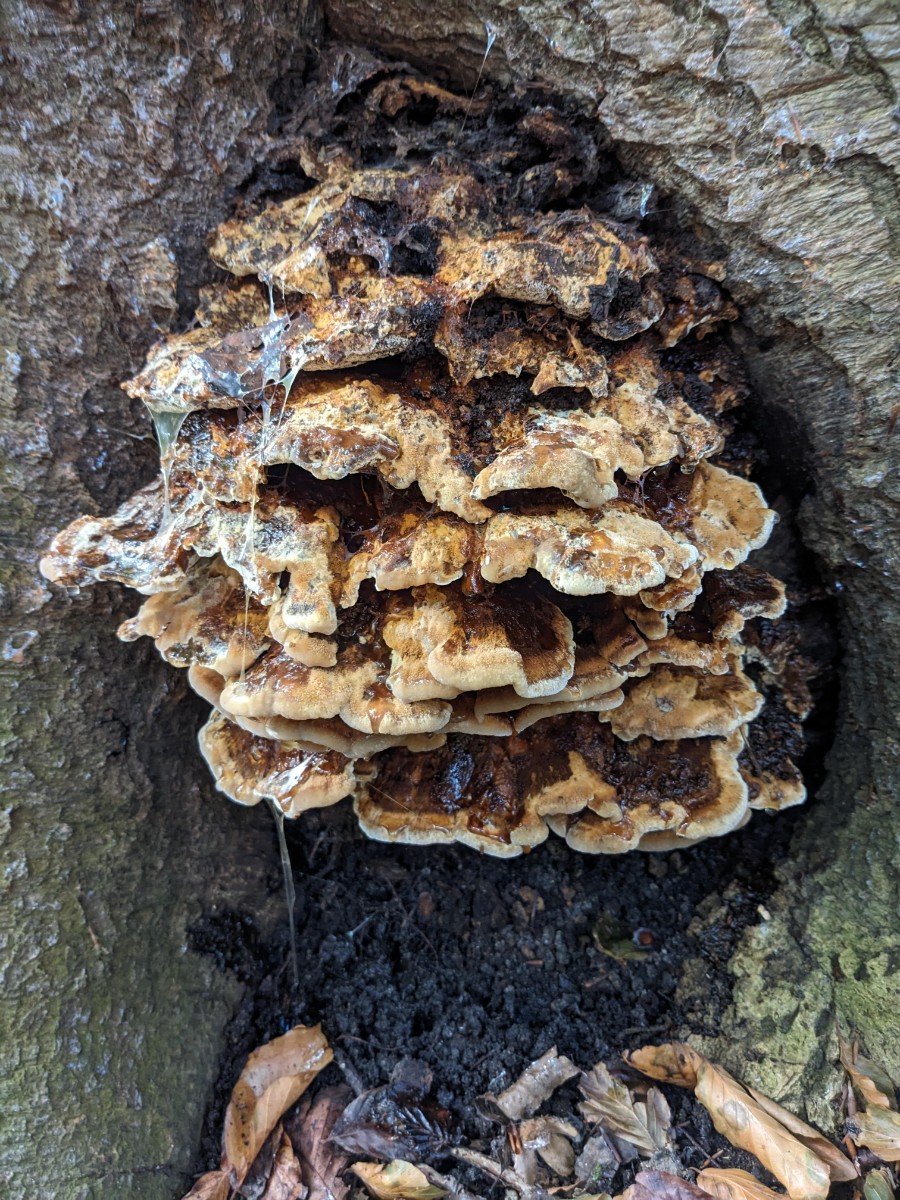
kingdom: Fungi
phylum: Basidiomycota
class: Agaricomycetes
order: Hymenochaetales
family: Hymenochaetaceae
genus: Inonotus
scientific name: Inonotus cuticularis
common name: kroghåret spejlporesvamp
